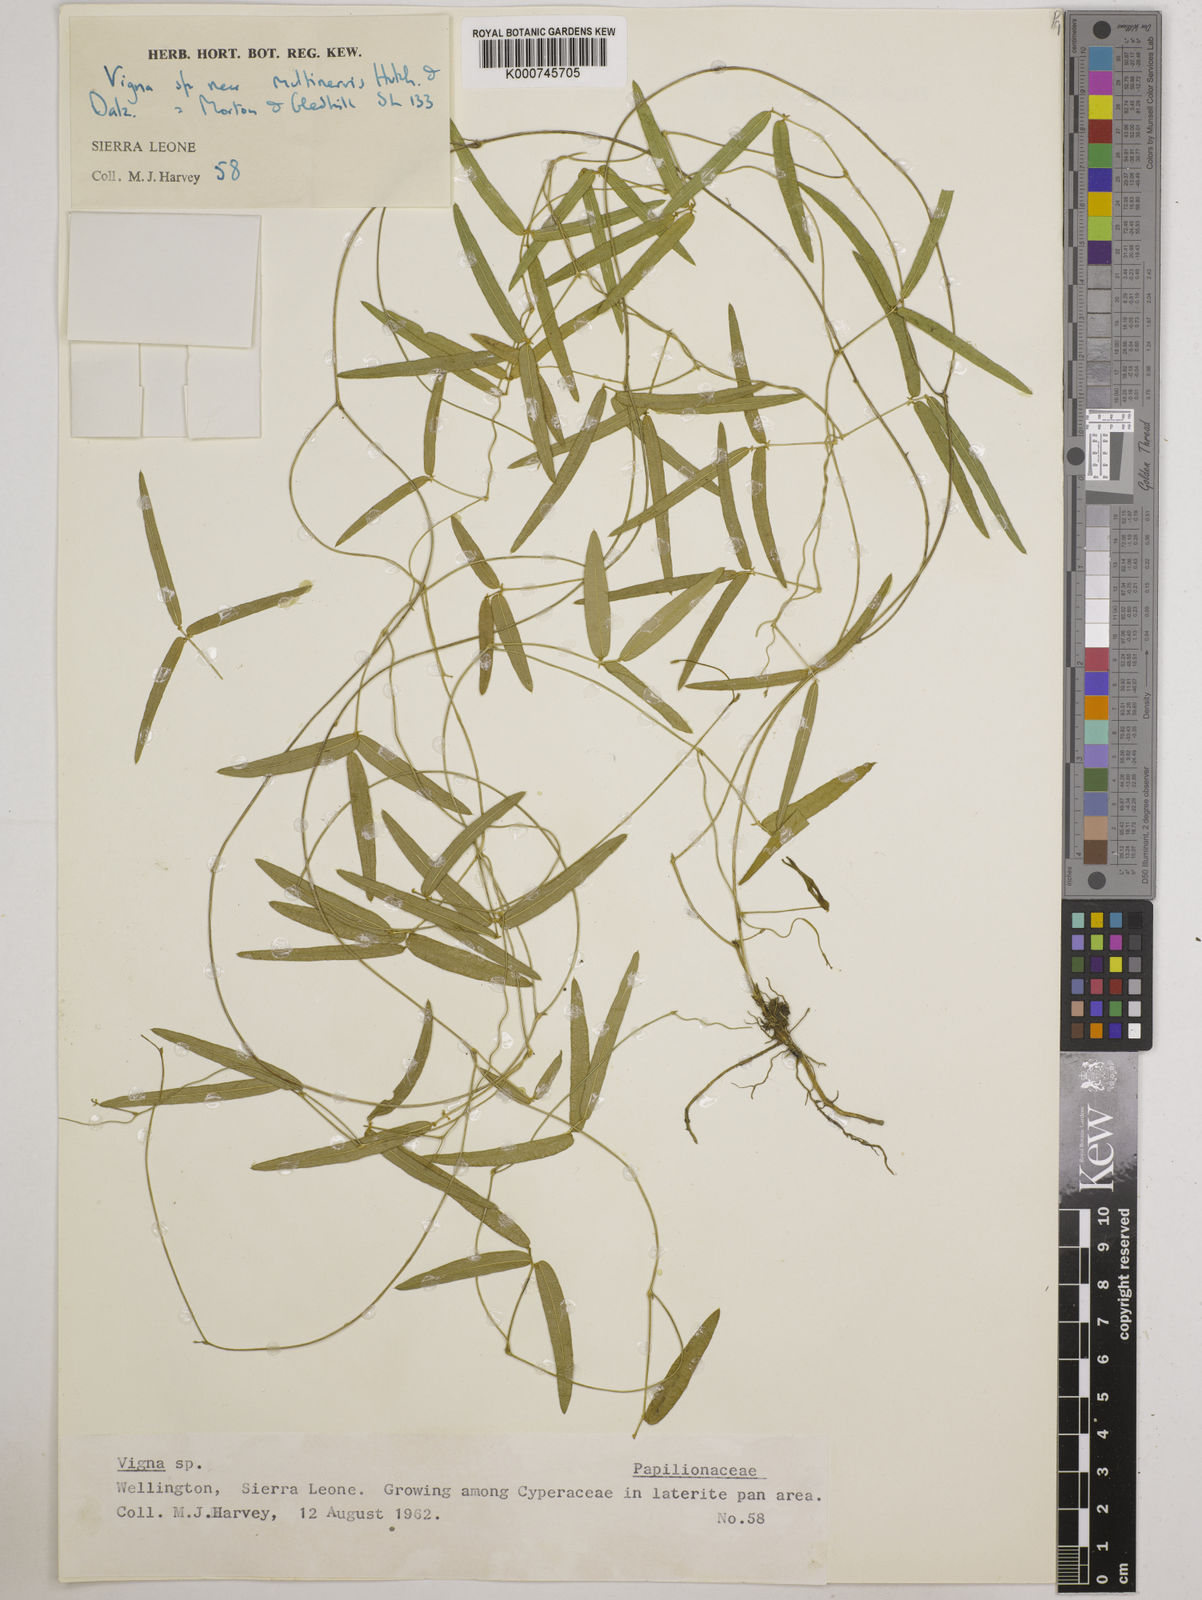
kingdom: Plantae
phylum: Tracheophyta
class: Magnoliopsida
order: Fabales
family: Fabaceae
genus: Vigna
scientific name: Vigna multinervis
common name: Fula-pulaar
